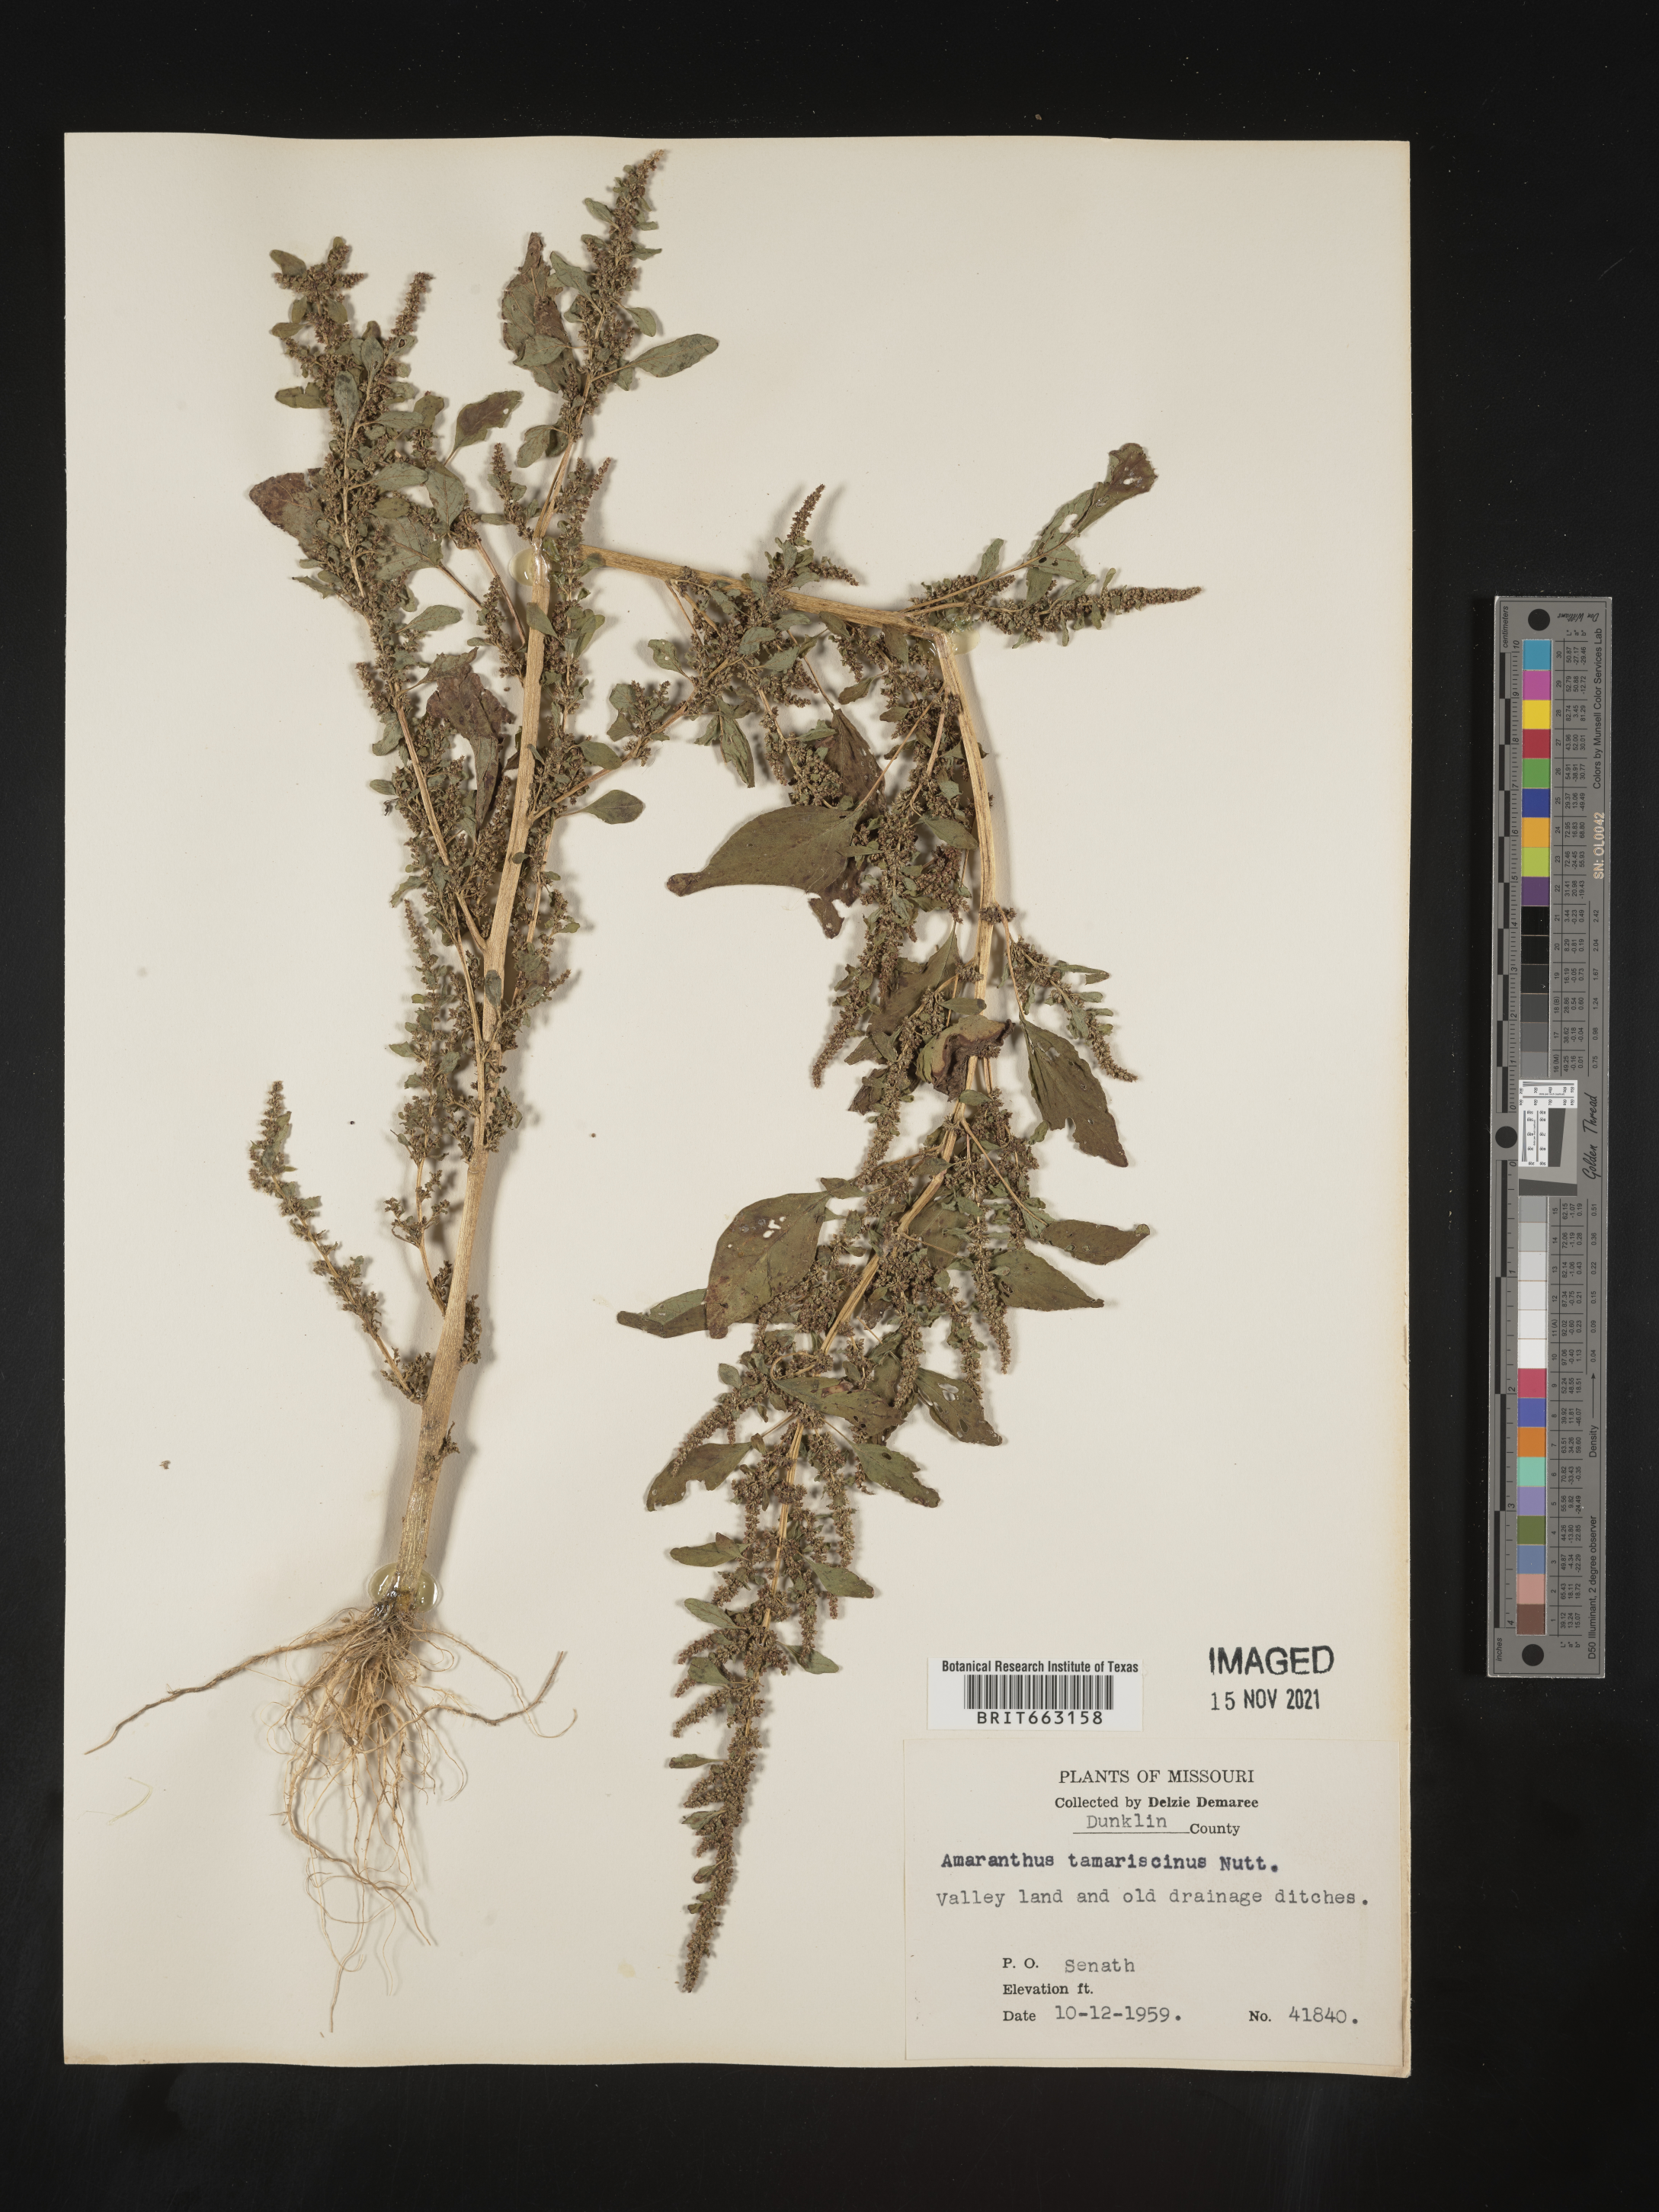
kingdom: Plantae
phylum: Tracheophyta
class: Magnoliopsida
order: Caryophyllales
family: Amaranthaceae
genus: Amaranthus
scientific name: Amaranthus tamariscinus
